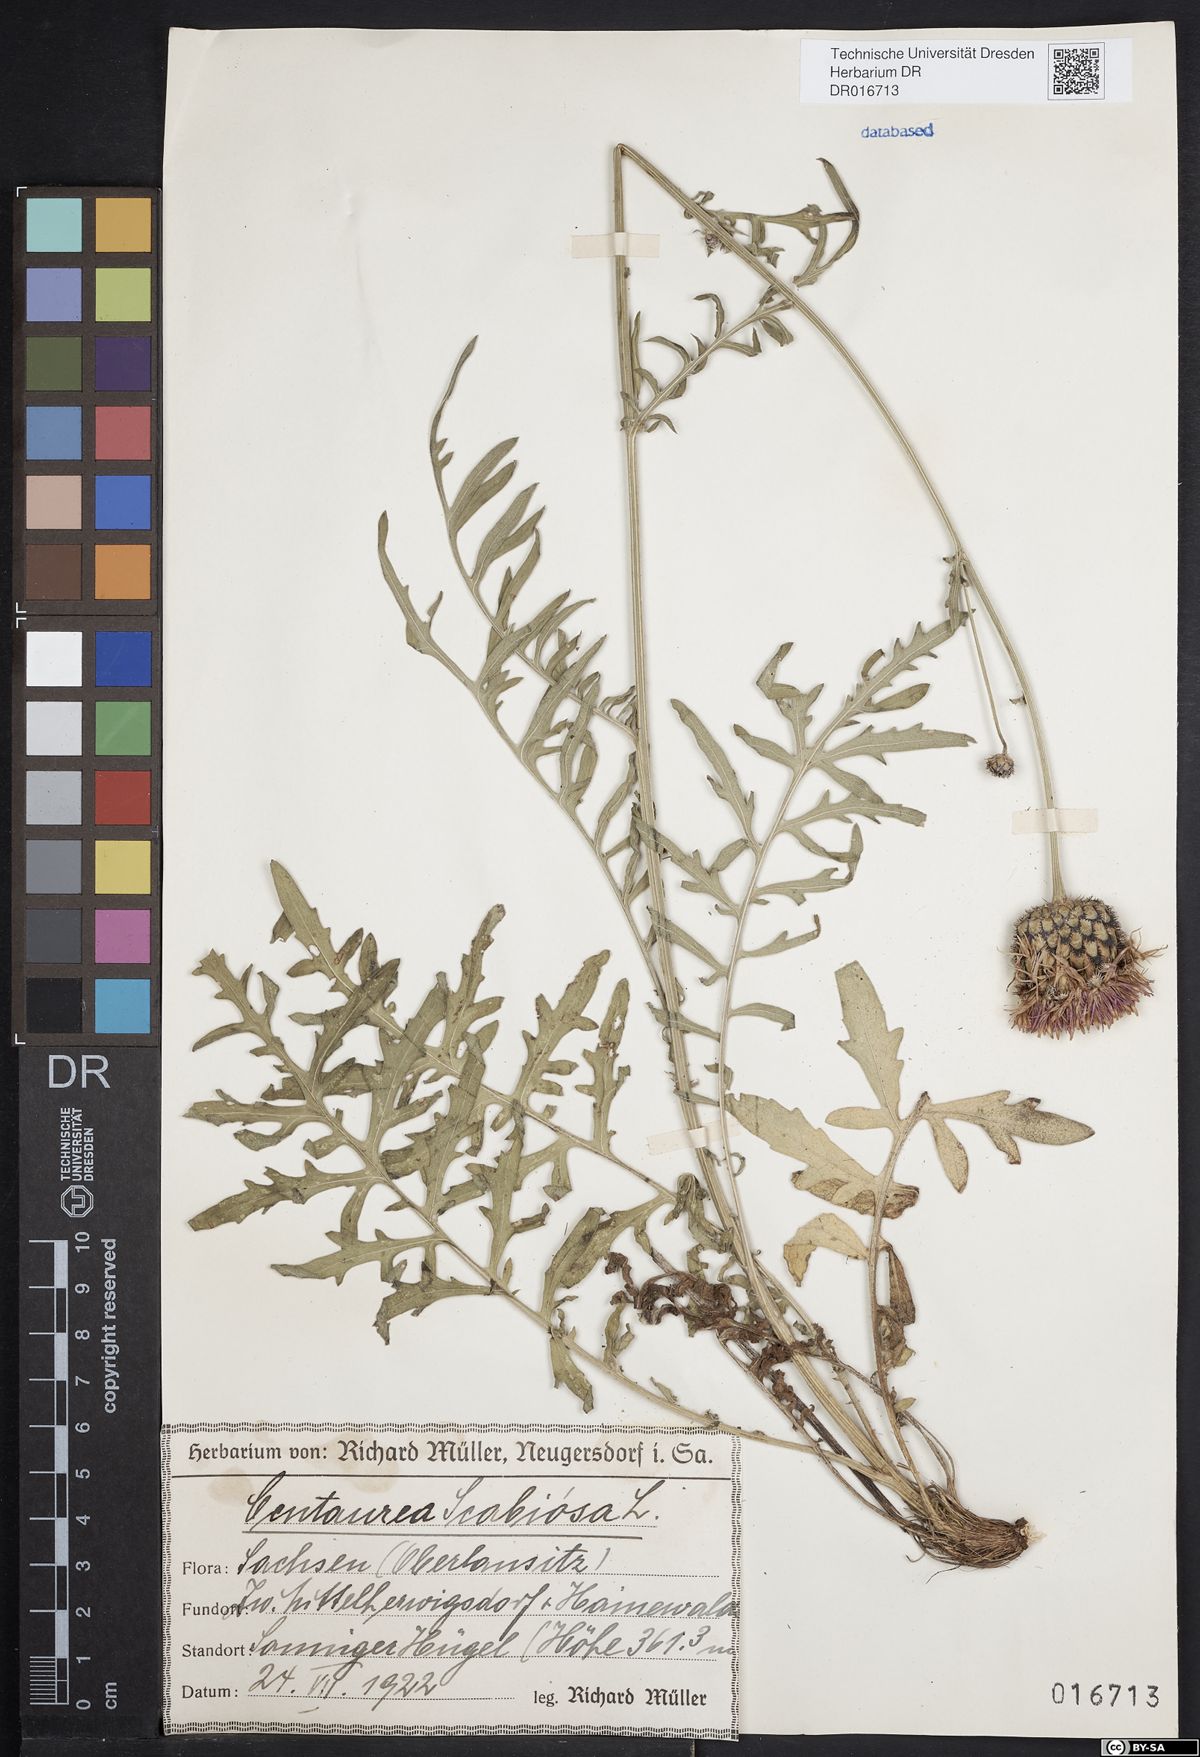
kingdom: Plantae
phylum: Tracheophyta
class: Magnoliopsida
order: Asterales
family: Asteraceae
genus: Centaurea
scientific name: Centaurea scabiosa
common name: Greater knapweed
